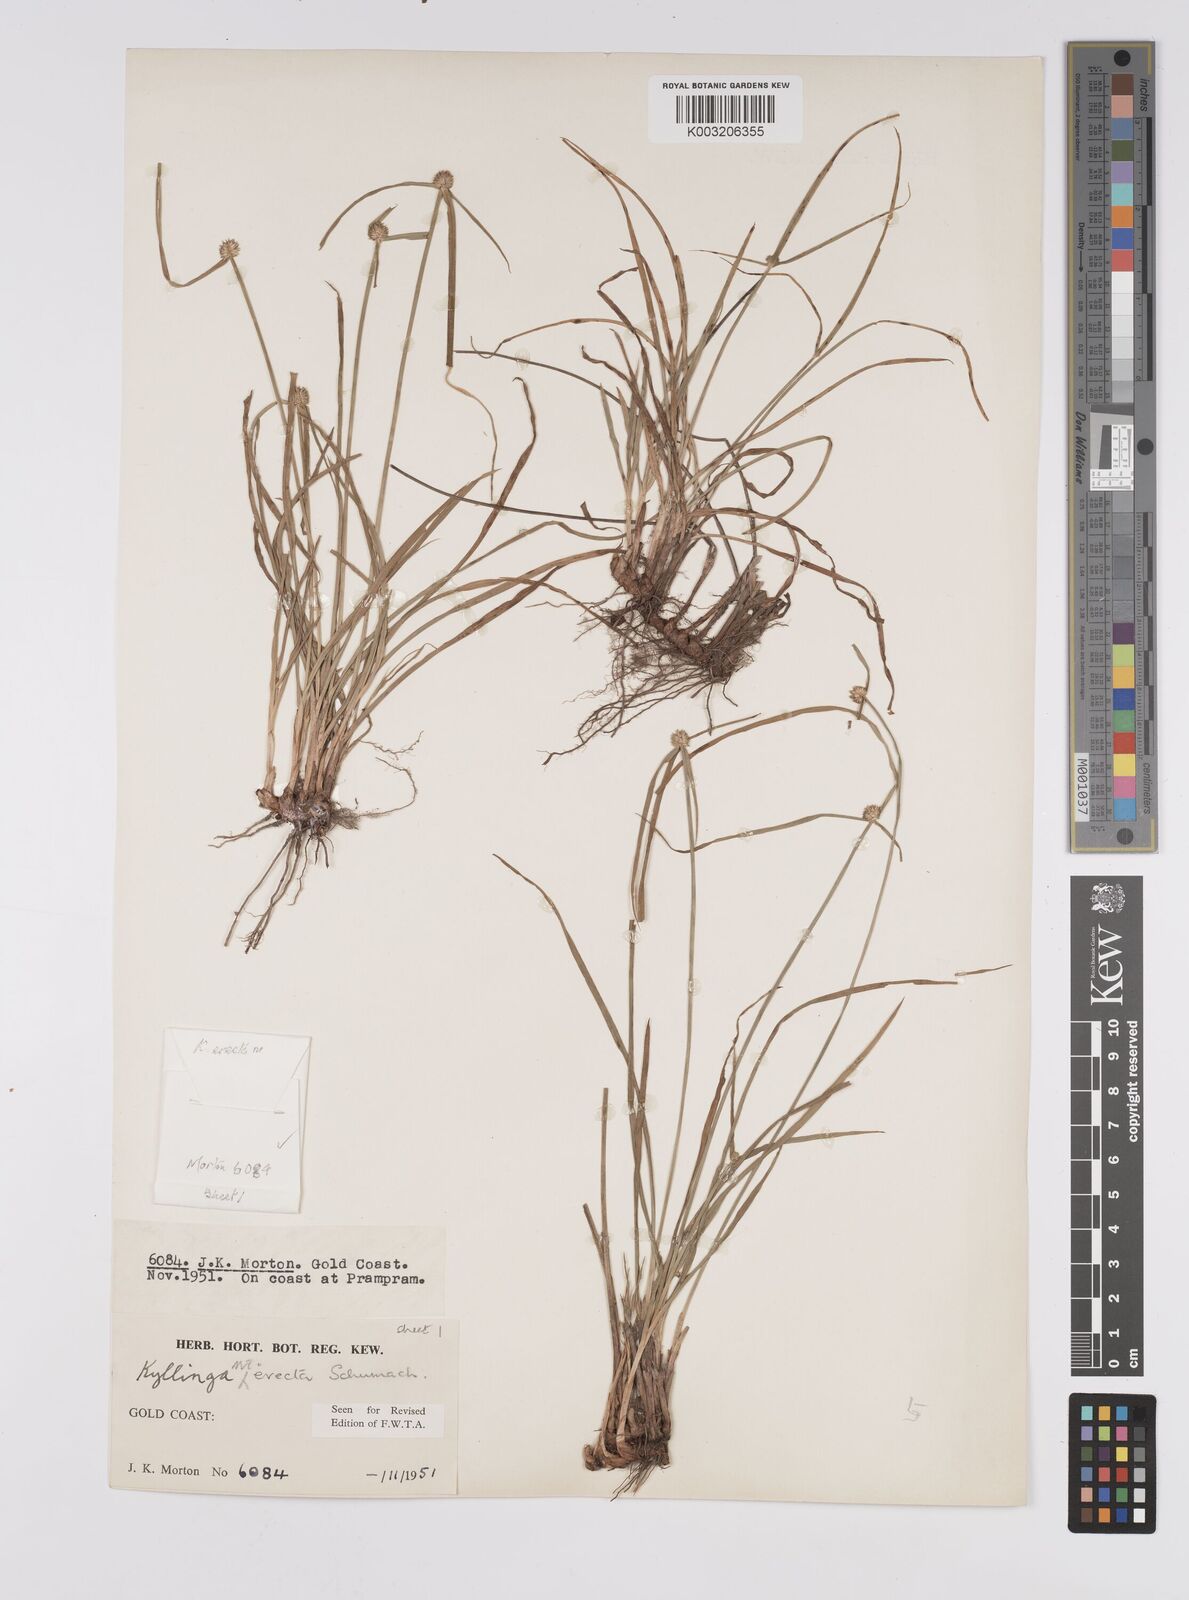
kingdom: Plantae
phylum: Tracheophyta
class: Liliopsida
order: Poales
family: Cyperaceae
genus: Cyperus
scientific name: Cyperus erectus
